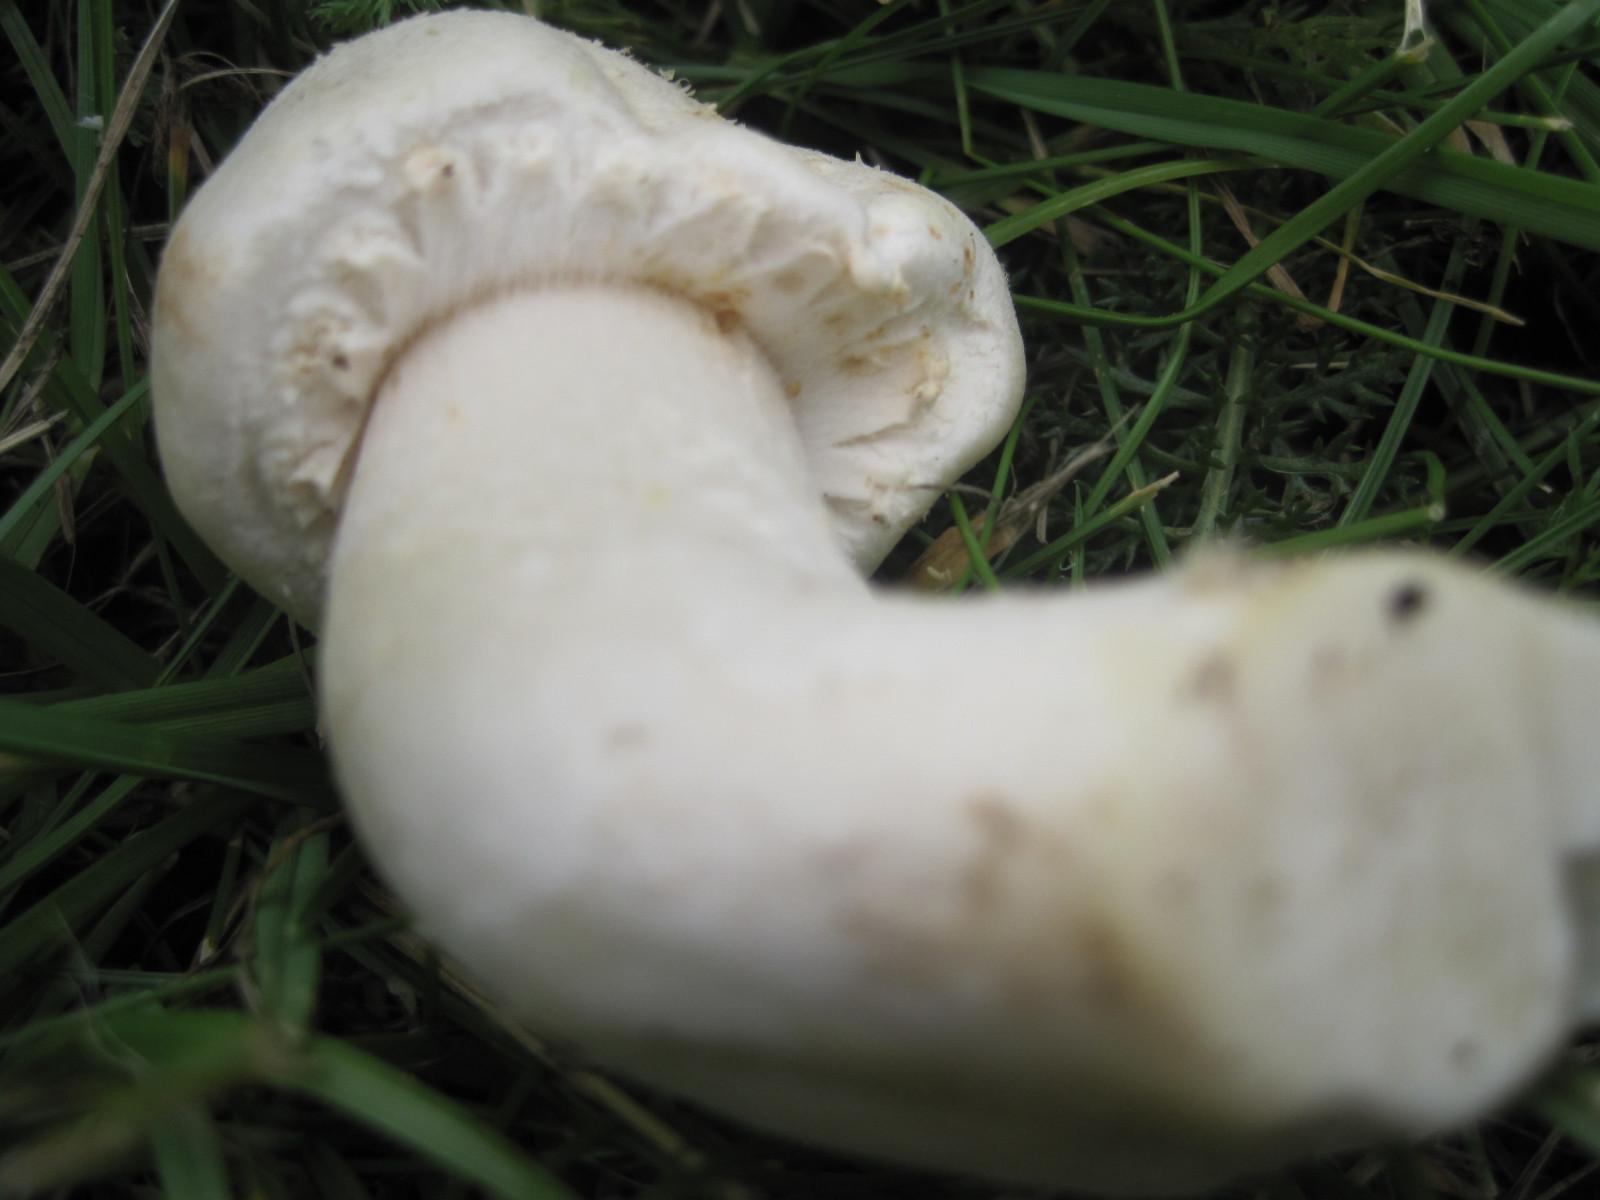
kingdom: Fungi
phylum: Basidiomycota
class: Agaricomycetes
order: Agaricales
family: Agaricaceae
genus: Agaricus
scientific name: Agaricus arvensis
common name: ager-champignon
